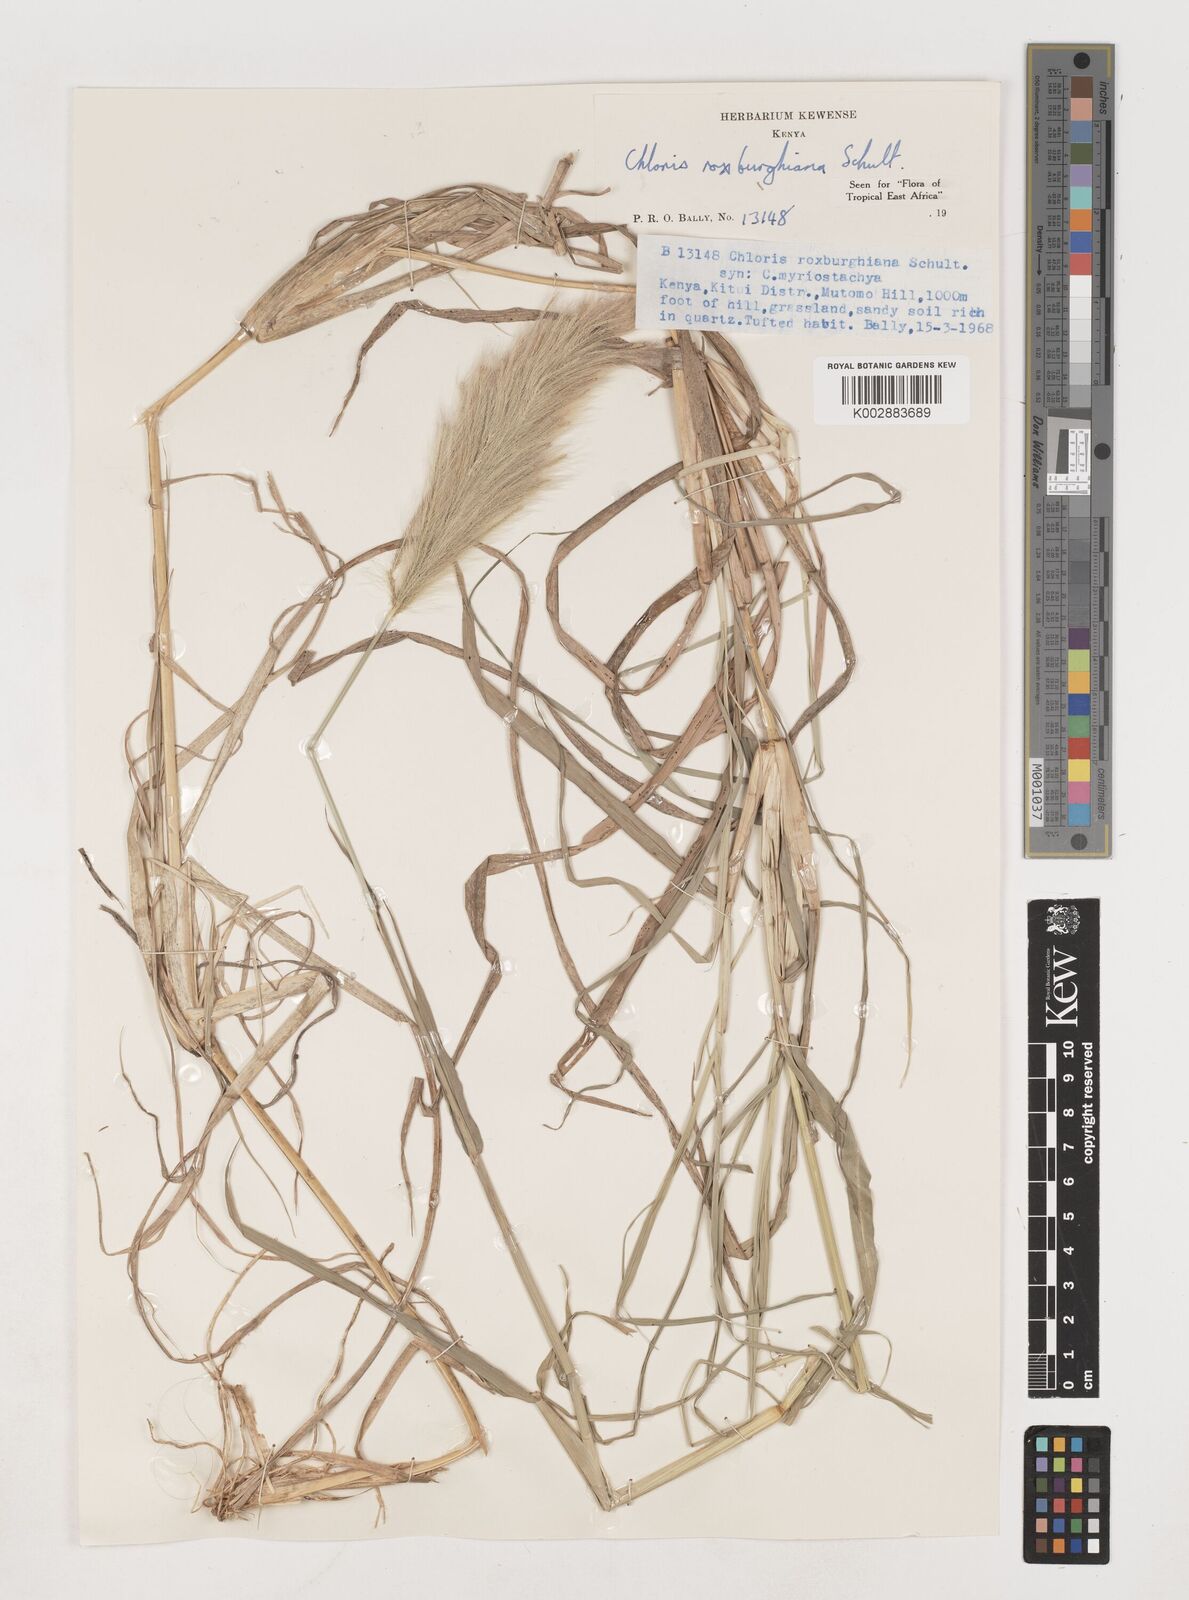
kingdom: Plantae
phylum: Tracheophyta
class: Liliopsida
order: Poales
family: Poaceae
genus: Tetrapogon
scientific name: Tetrapogon roxburghiana
